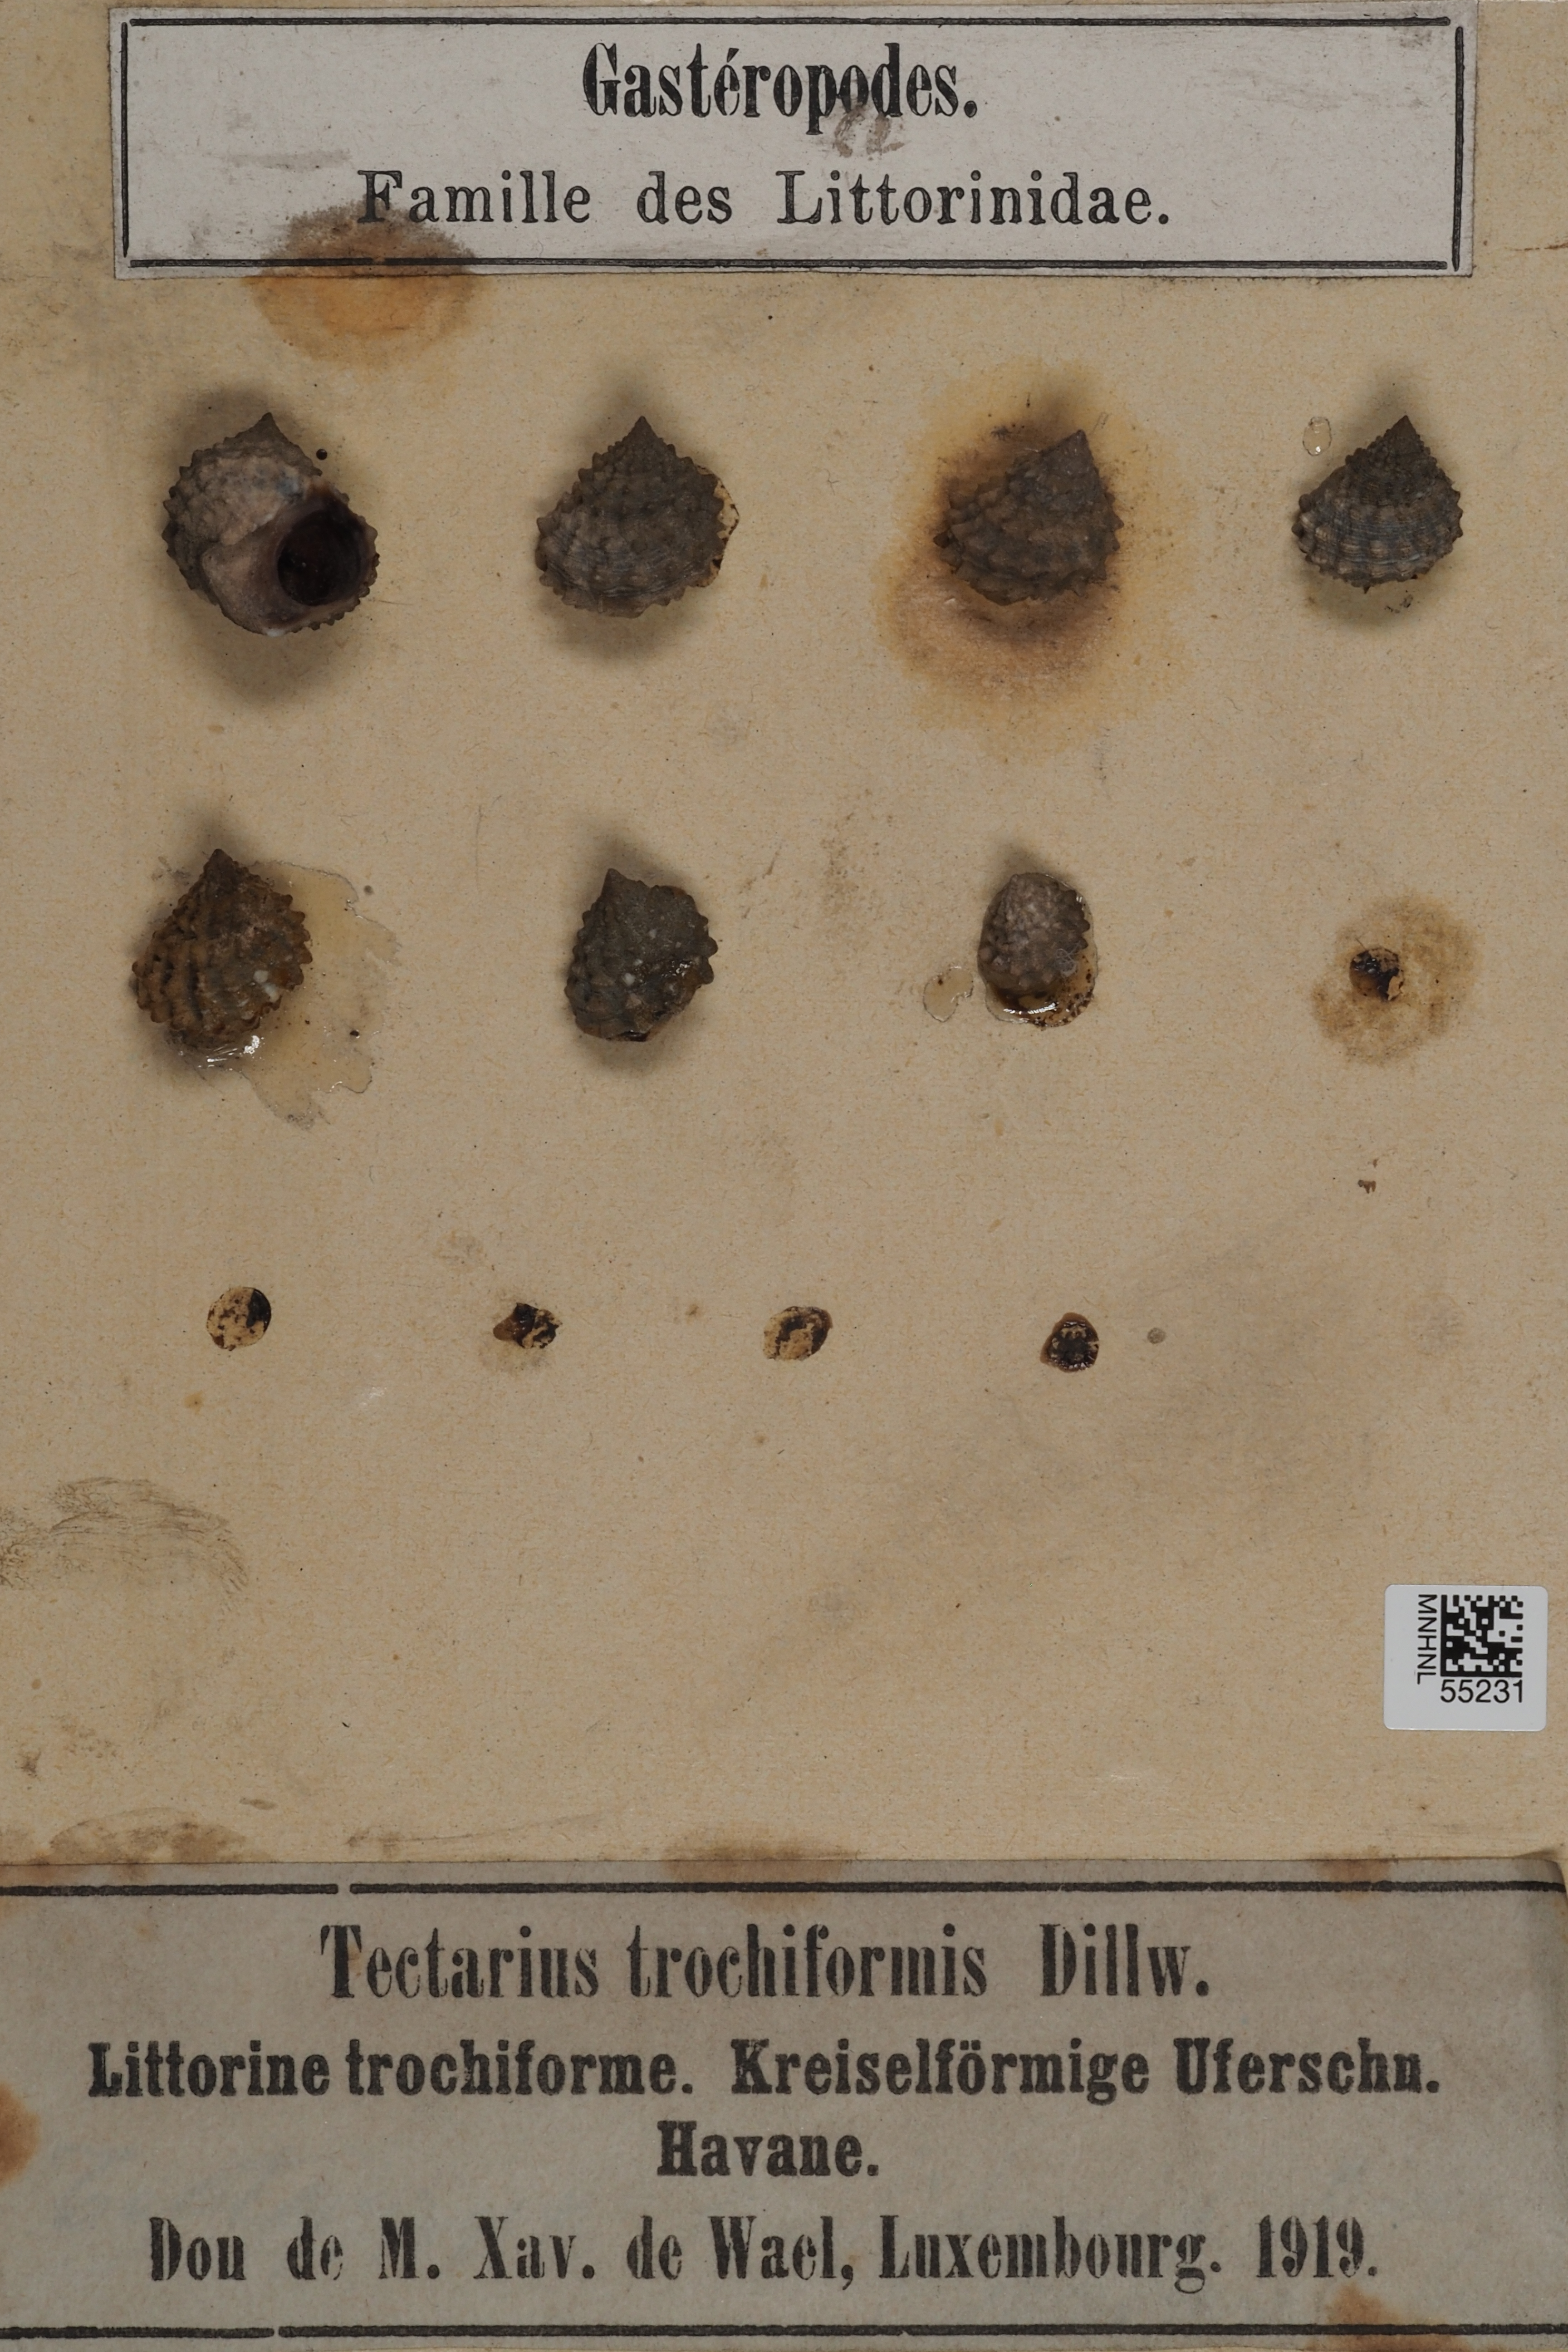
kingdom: Animalia
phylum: Mollusca
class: Gastropoda
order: Littorinimorpha
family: Littorinidae
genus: Tectarius
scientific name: Tectarius
